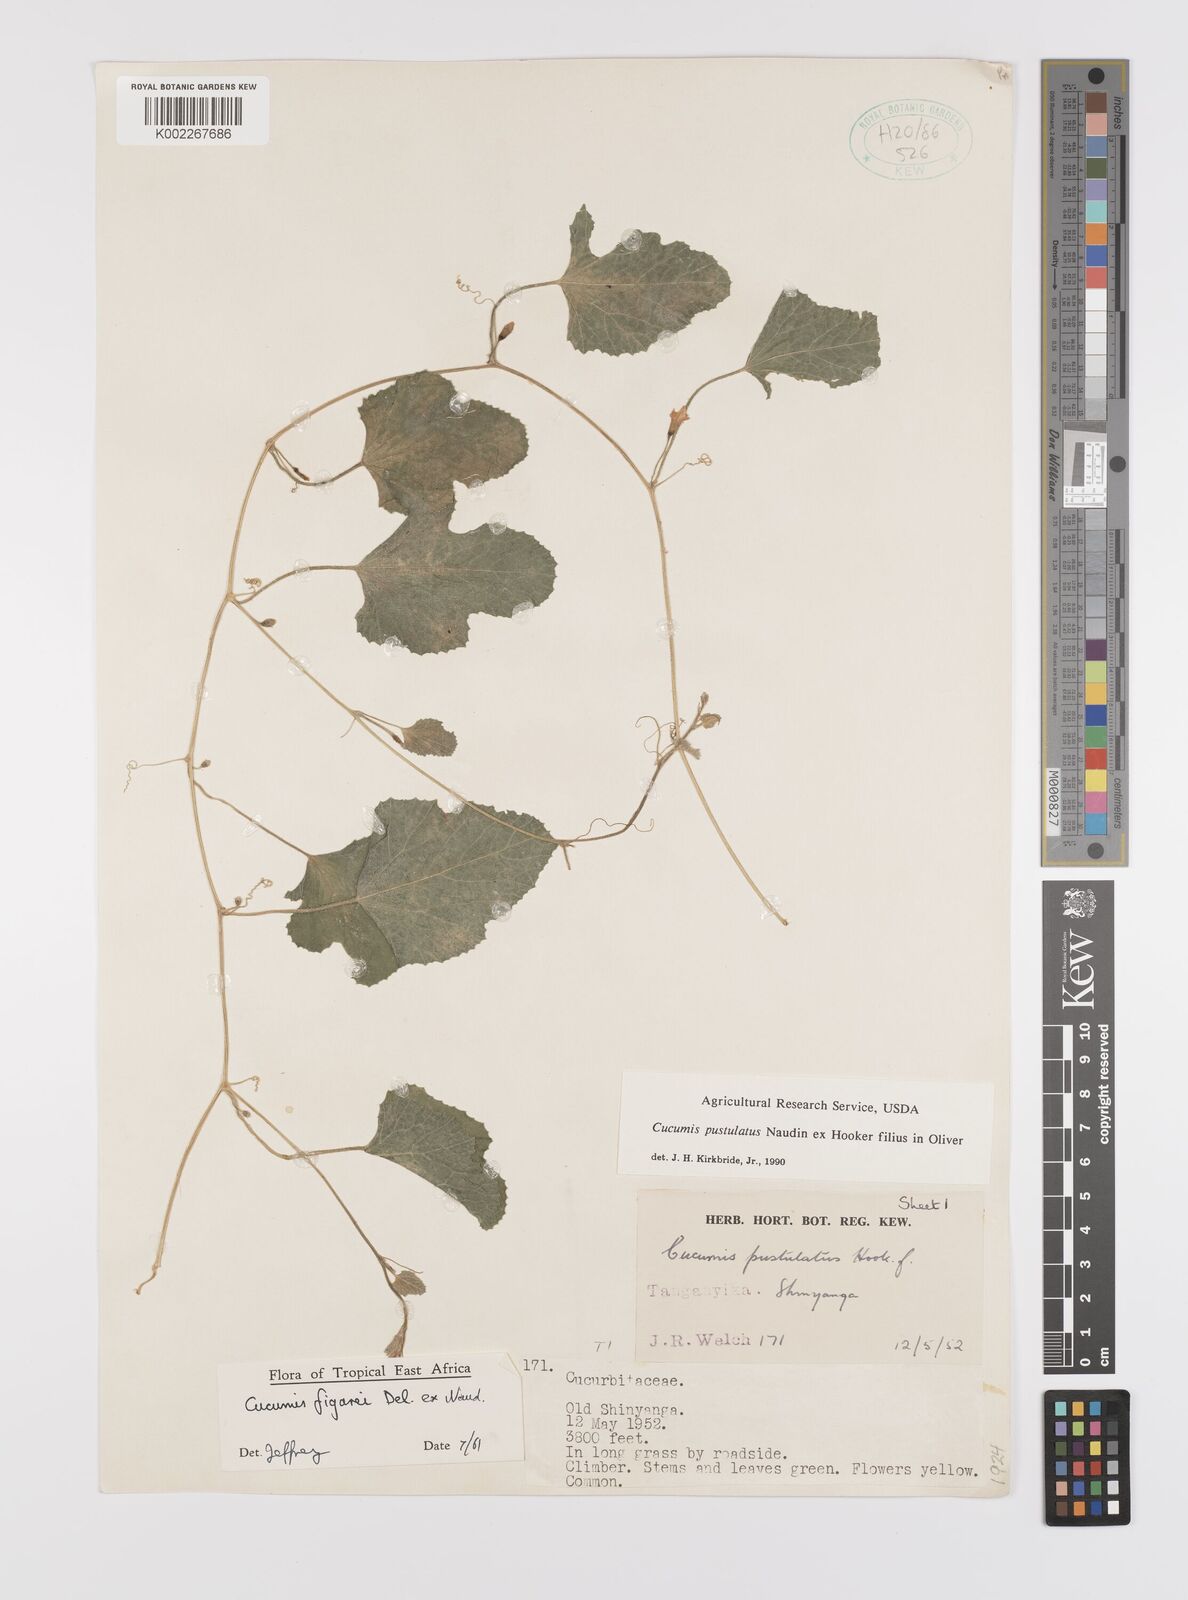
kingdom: Plantae
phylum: Tracheophyta
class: Magnoliopsida
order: Cucurbitales
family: Cucurbitaceae
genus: Cucumis
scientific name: Cucumis
